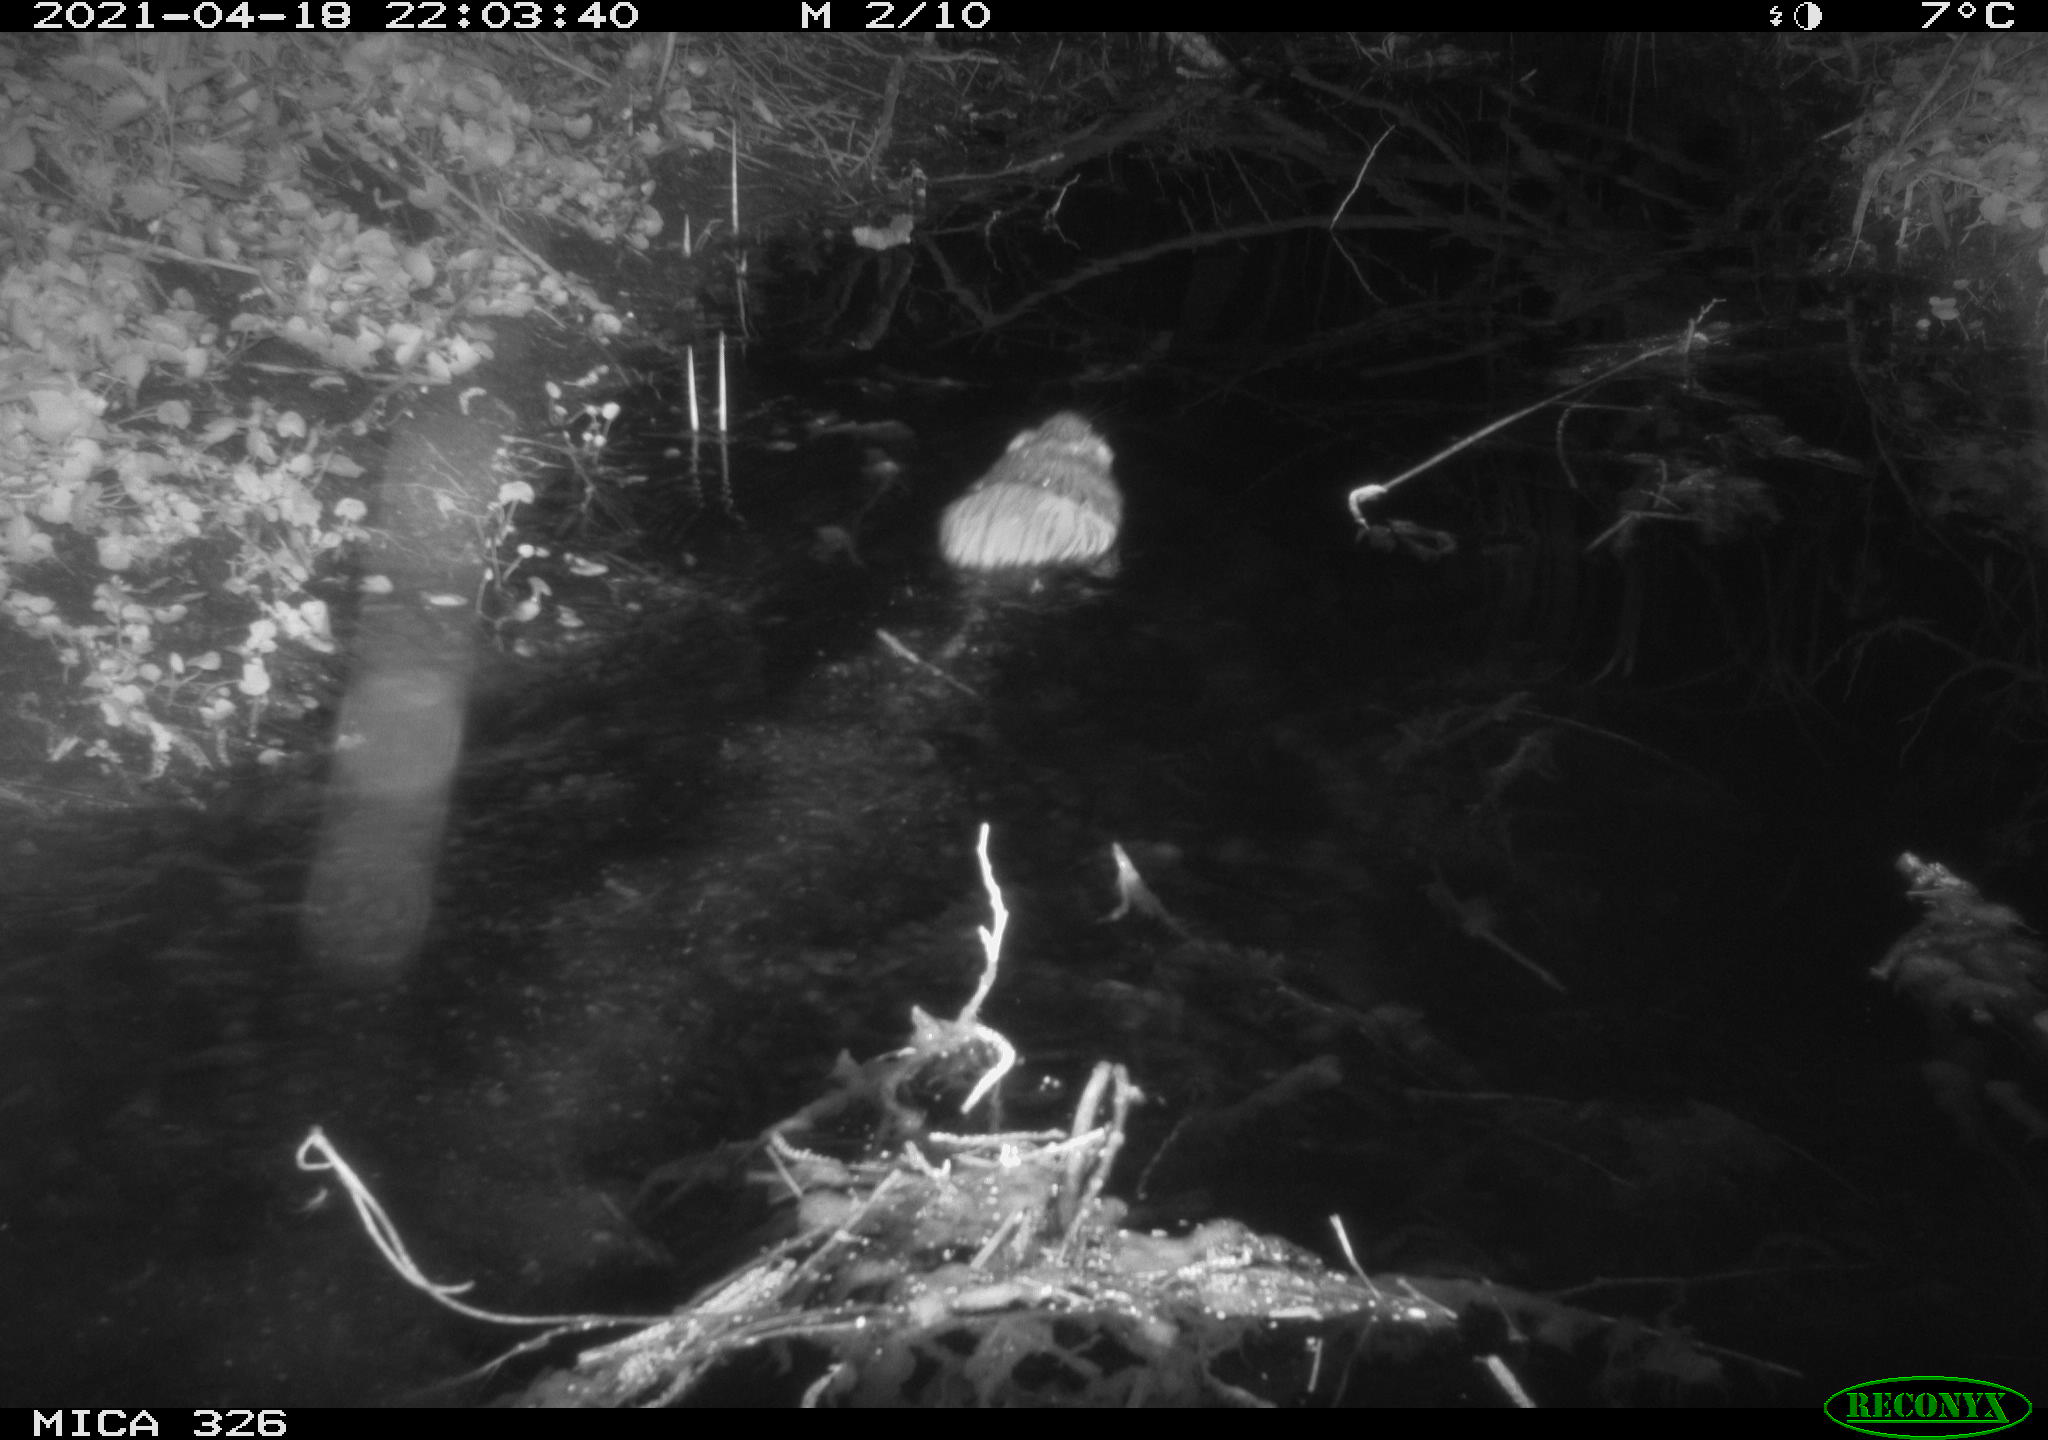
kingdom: Animalia
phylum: Chordata
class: Mammalia
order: Rodentia
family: Cricetidae
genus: Ondatra
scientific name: Ondatra zibethicus
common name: Muskrat
